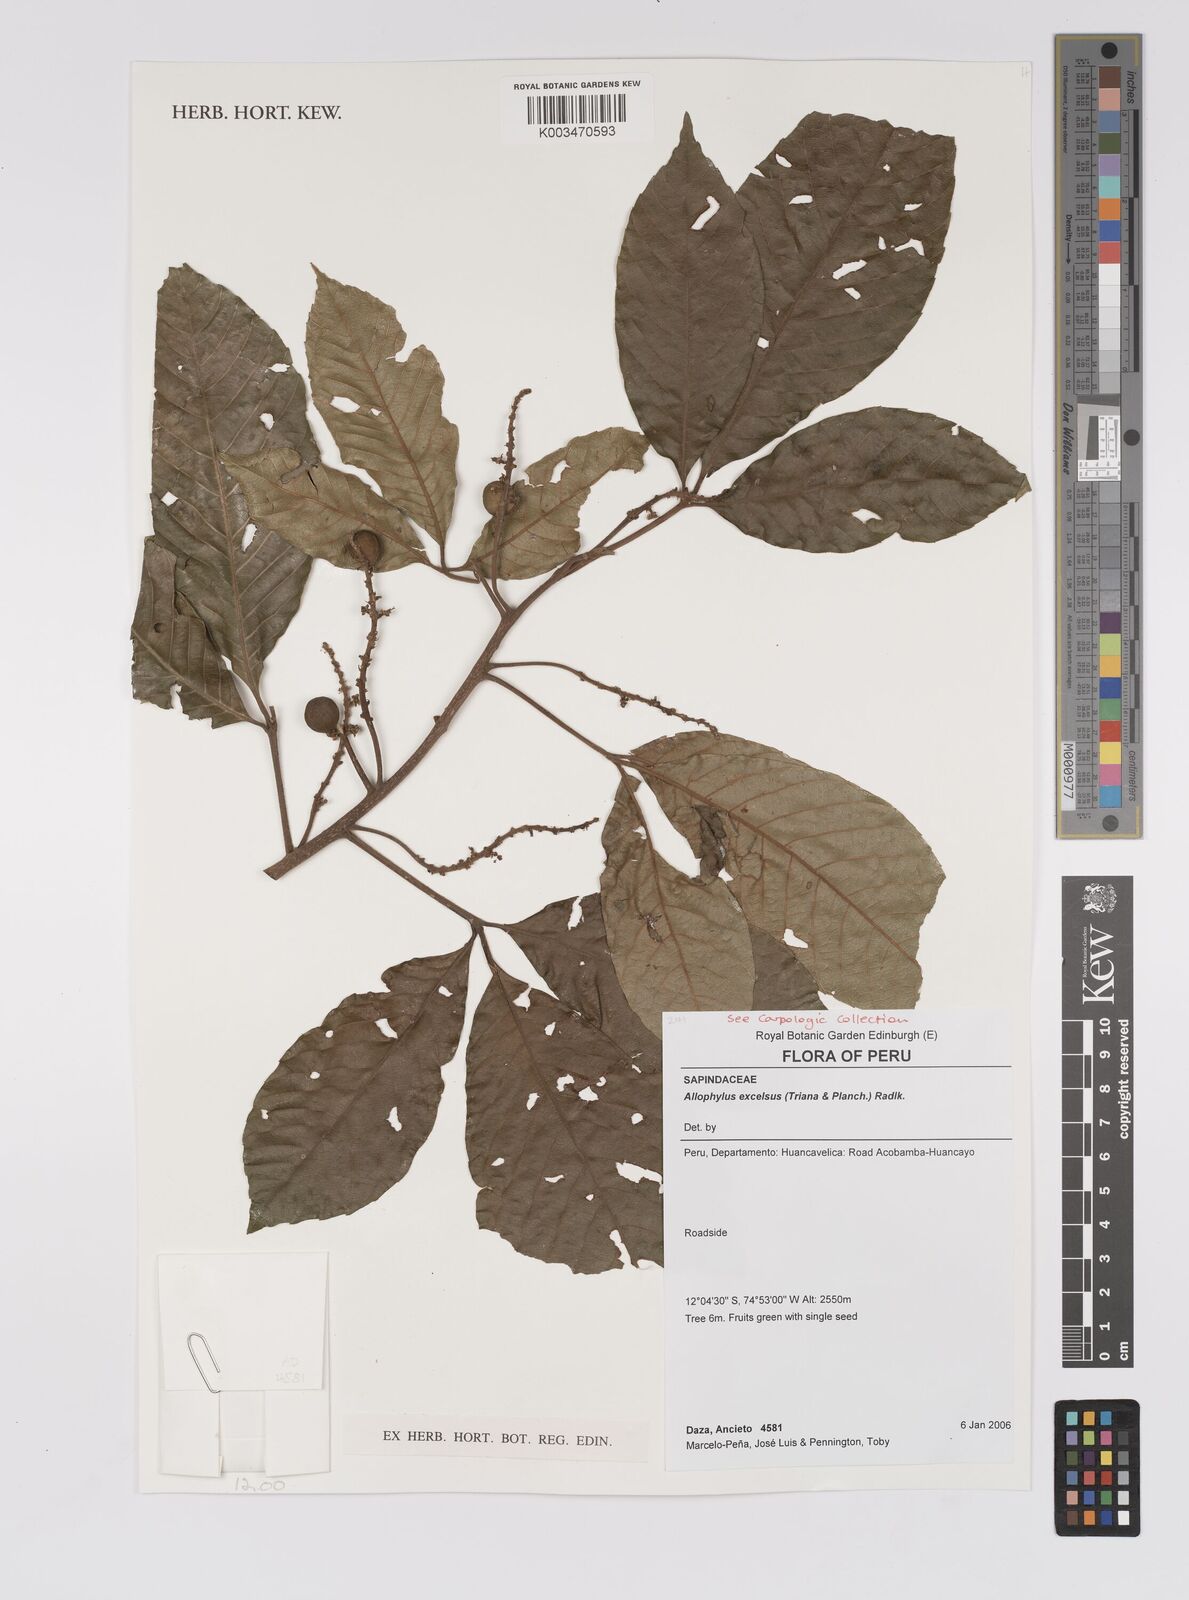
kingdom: Plantae
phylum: Tracheophyta
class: Magnoliopsida
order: Sapindales
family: Sapindaceae
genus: Allophylus
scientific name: Allophylus excelsus
